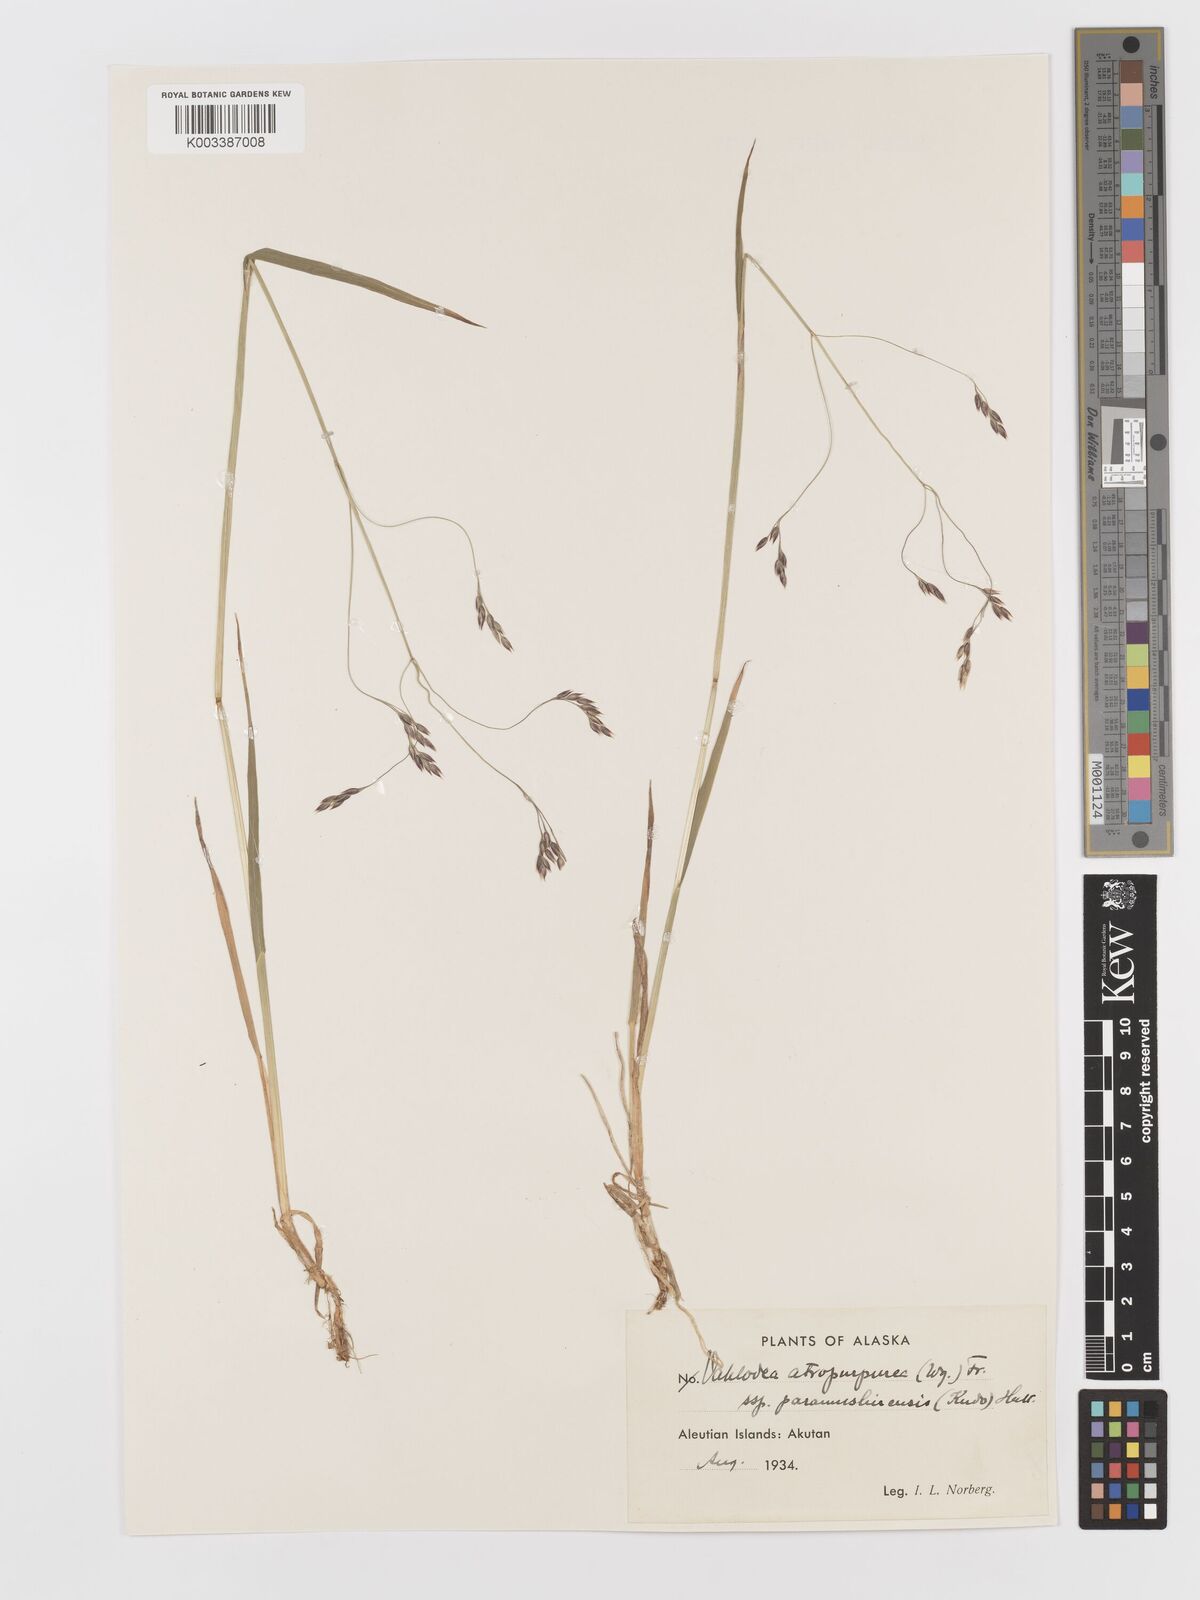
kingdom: Plantae
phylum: Tracheophyta
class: Liliopsida
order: Poales
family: Poaceae
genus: Vahlodea
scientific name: Vahlodea atropurpurea
